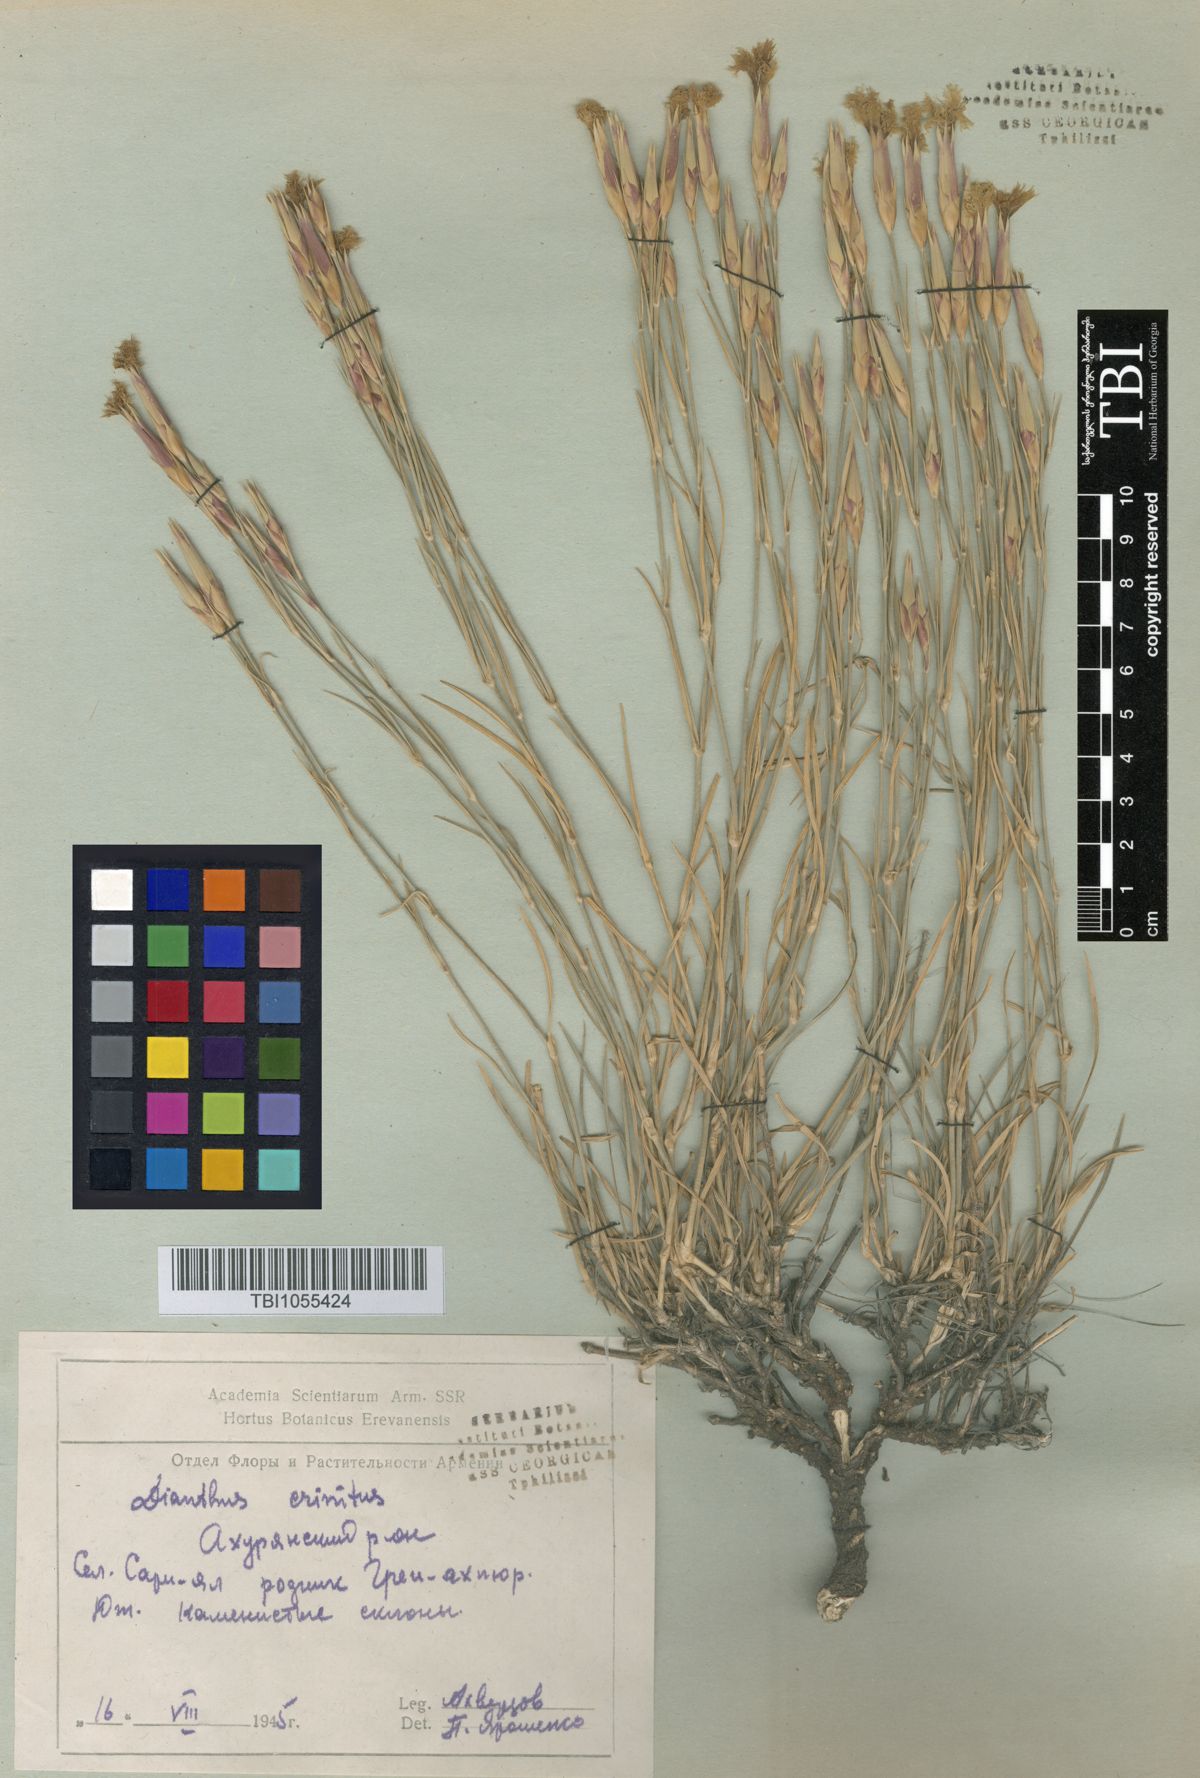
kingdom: Plantae
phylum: Tracheophyta
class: Magnoliopsida
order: Caryophyllales
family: Caryophyllaceae
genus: Dianthus
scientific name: Dianthus crinitus
